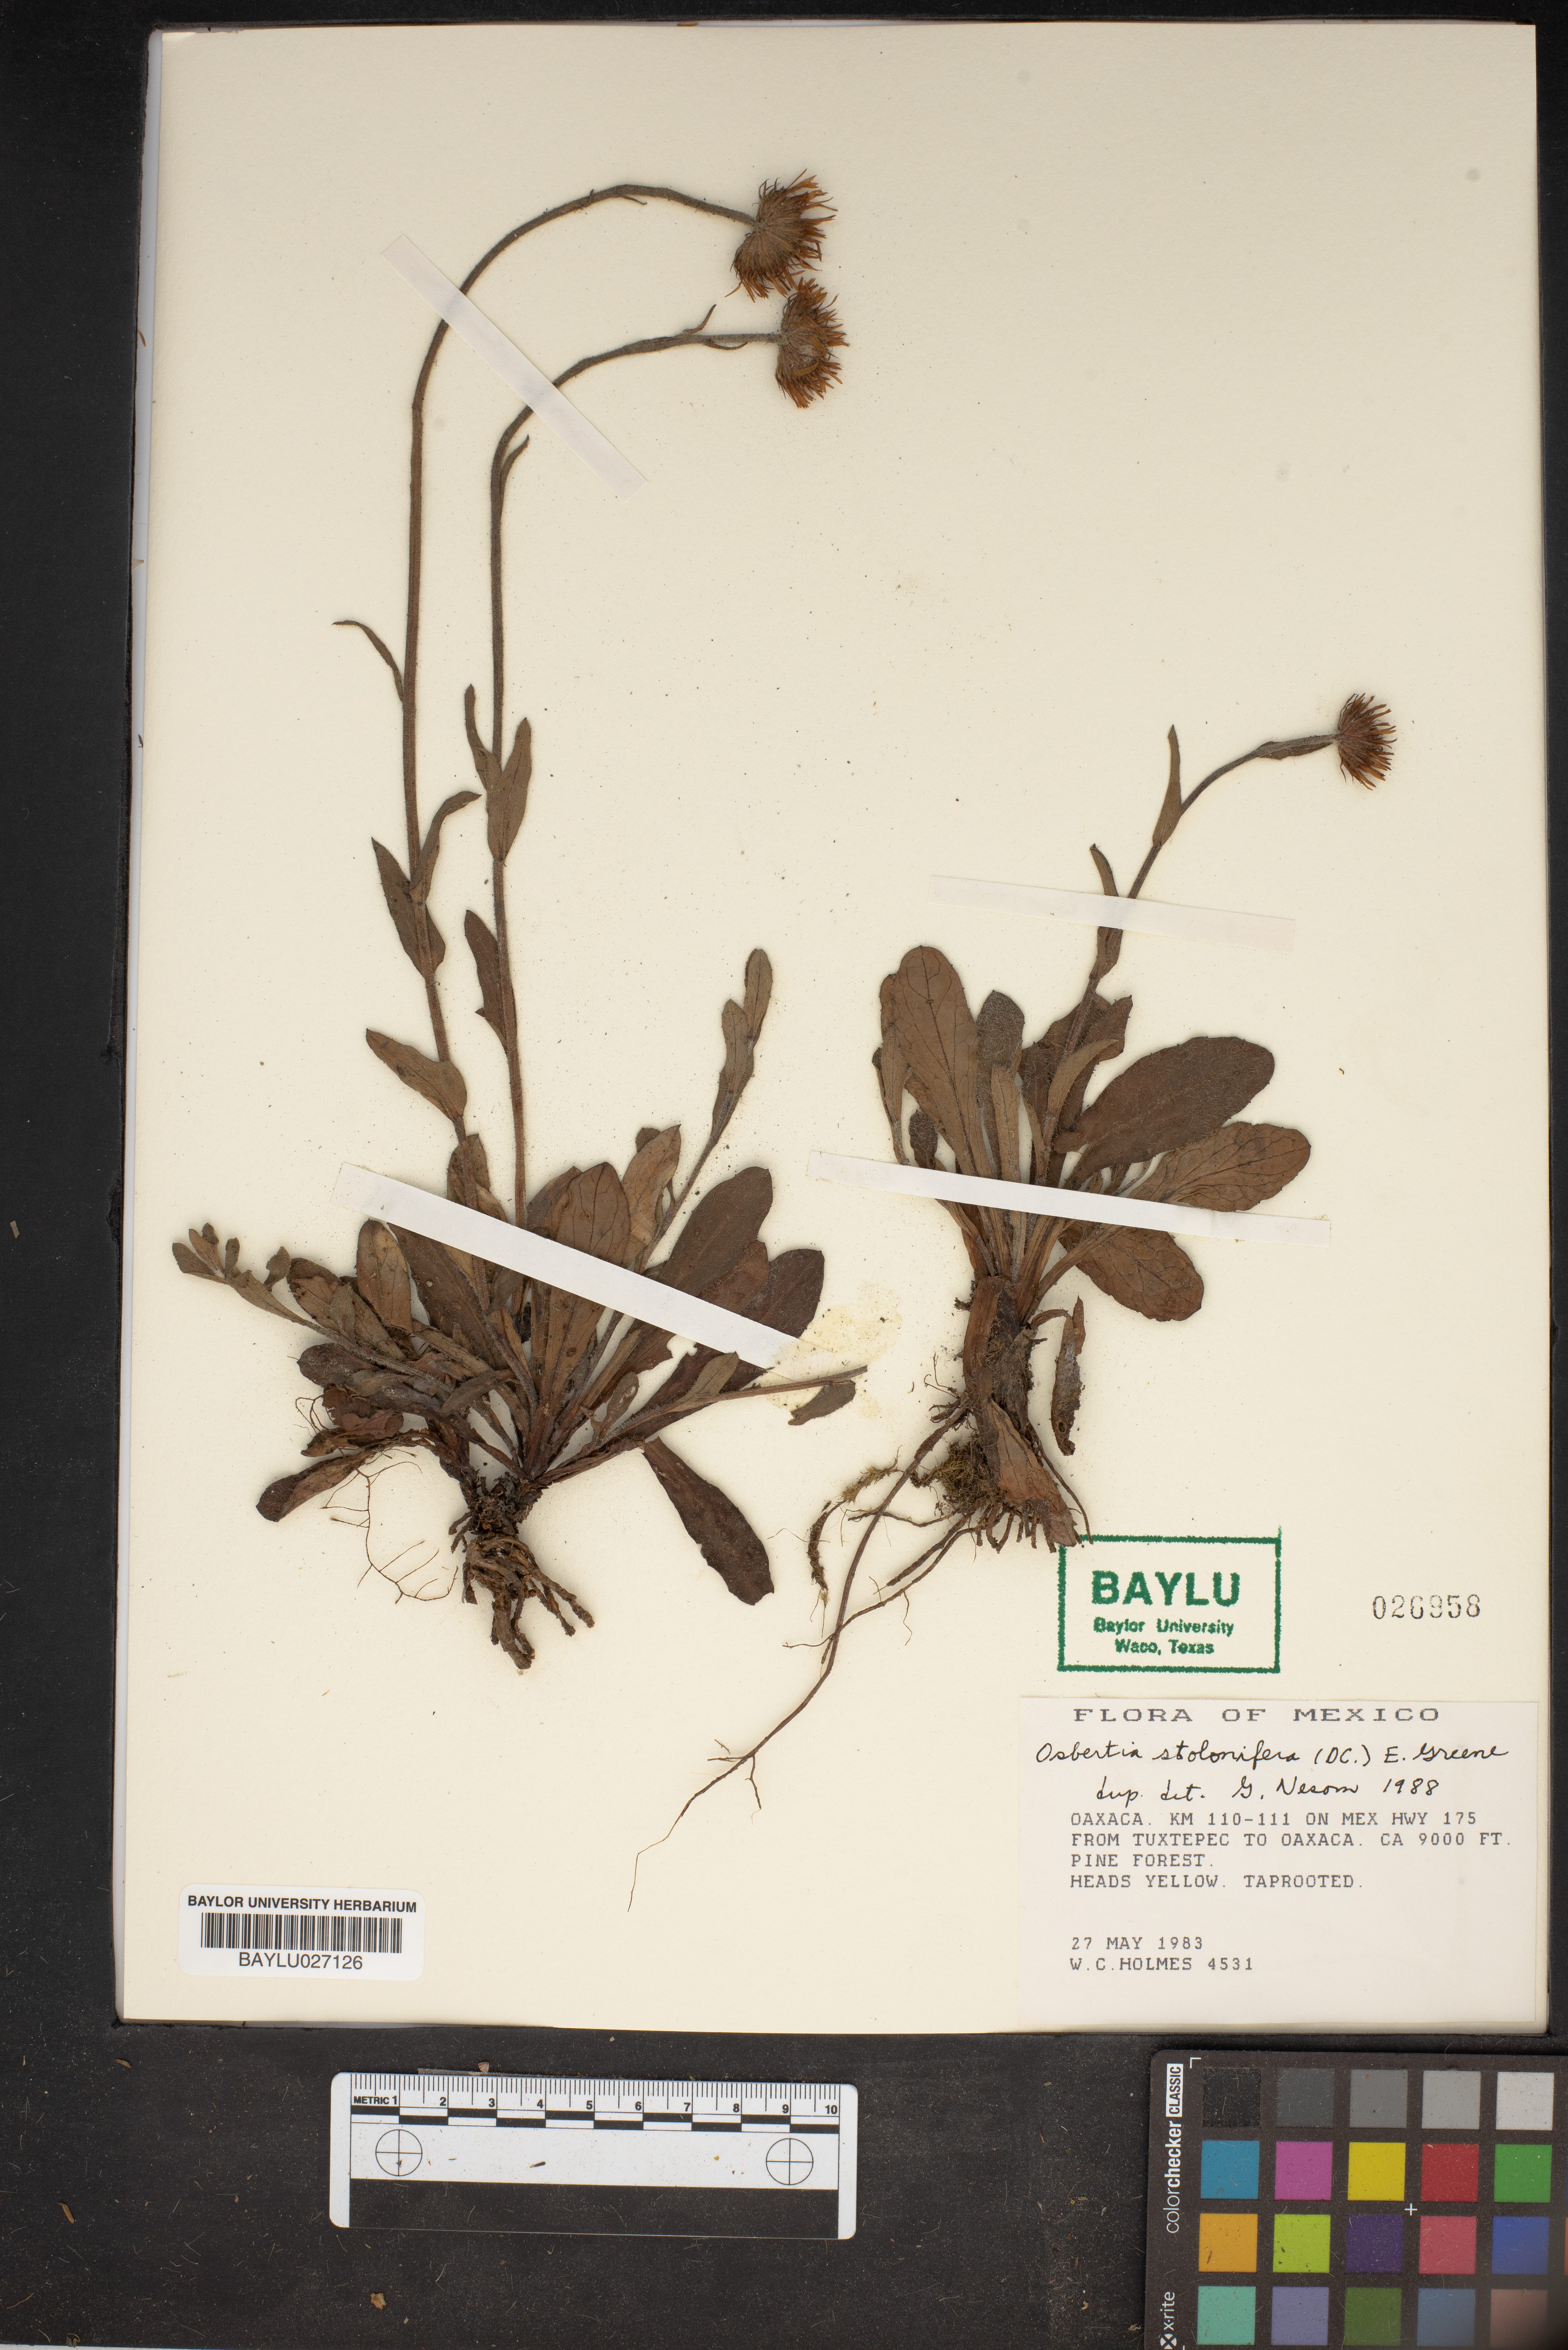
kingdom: Plantae
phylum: Tracheophyta
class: Magnoliopsida
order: Asterales
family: Asteraceae
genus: Osbertia
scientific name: Osbertia stolonifera
